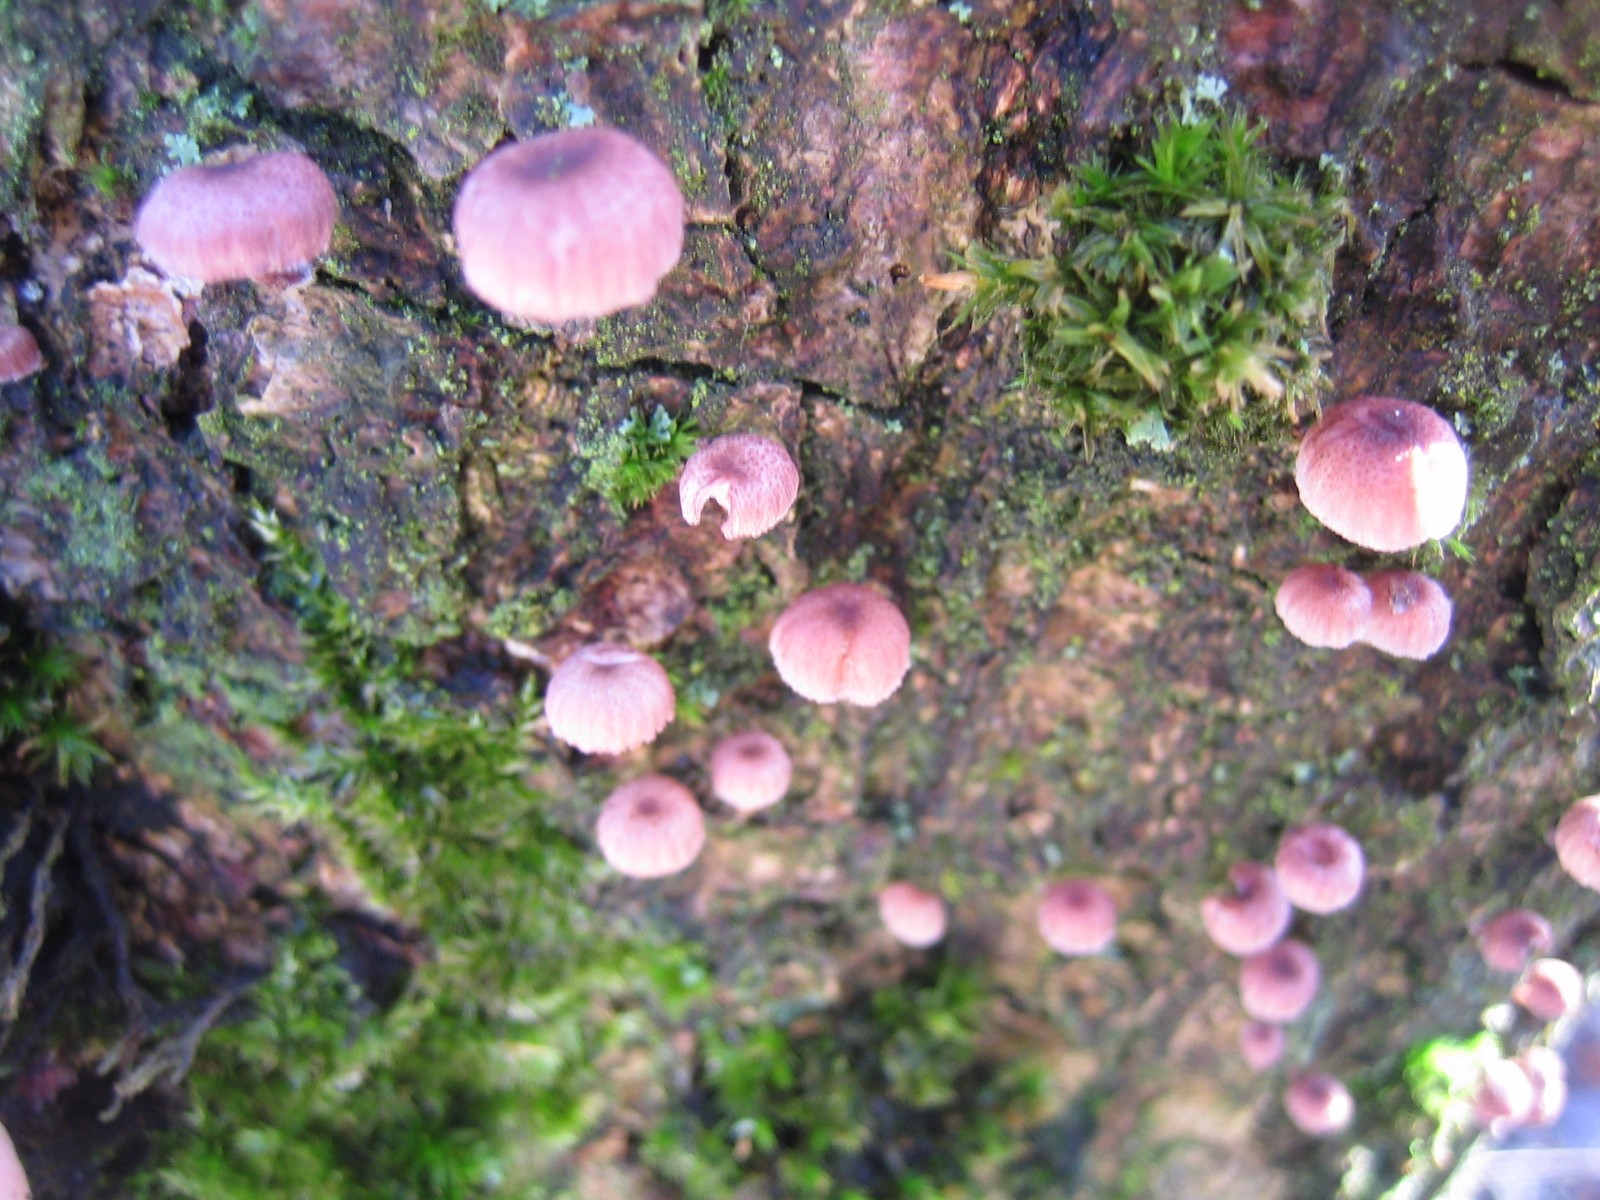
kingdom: Fungi
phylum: Basidiomycota
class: Agaricomycetes
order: Agaricales
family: Mycenaceae
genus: Mycena
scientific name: Mycena meliigena
